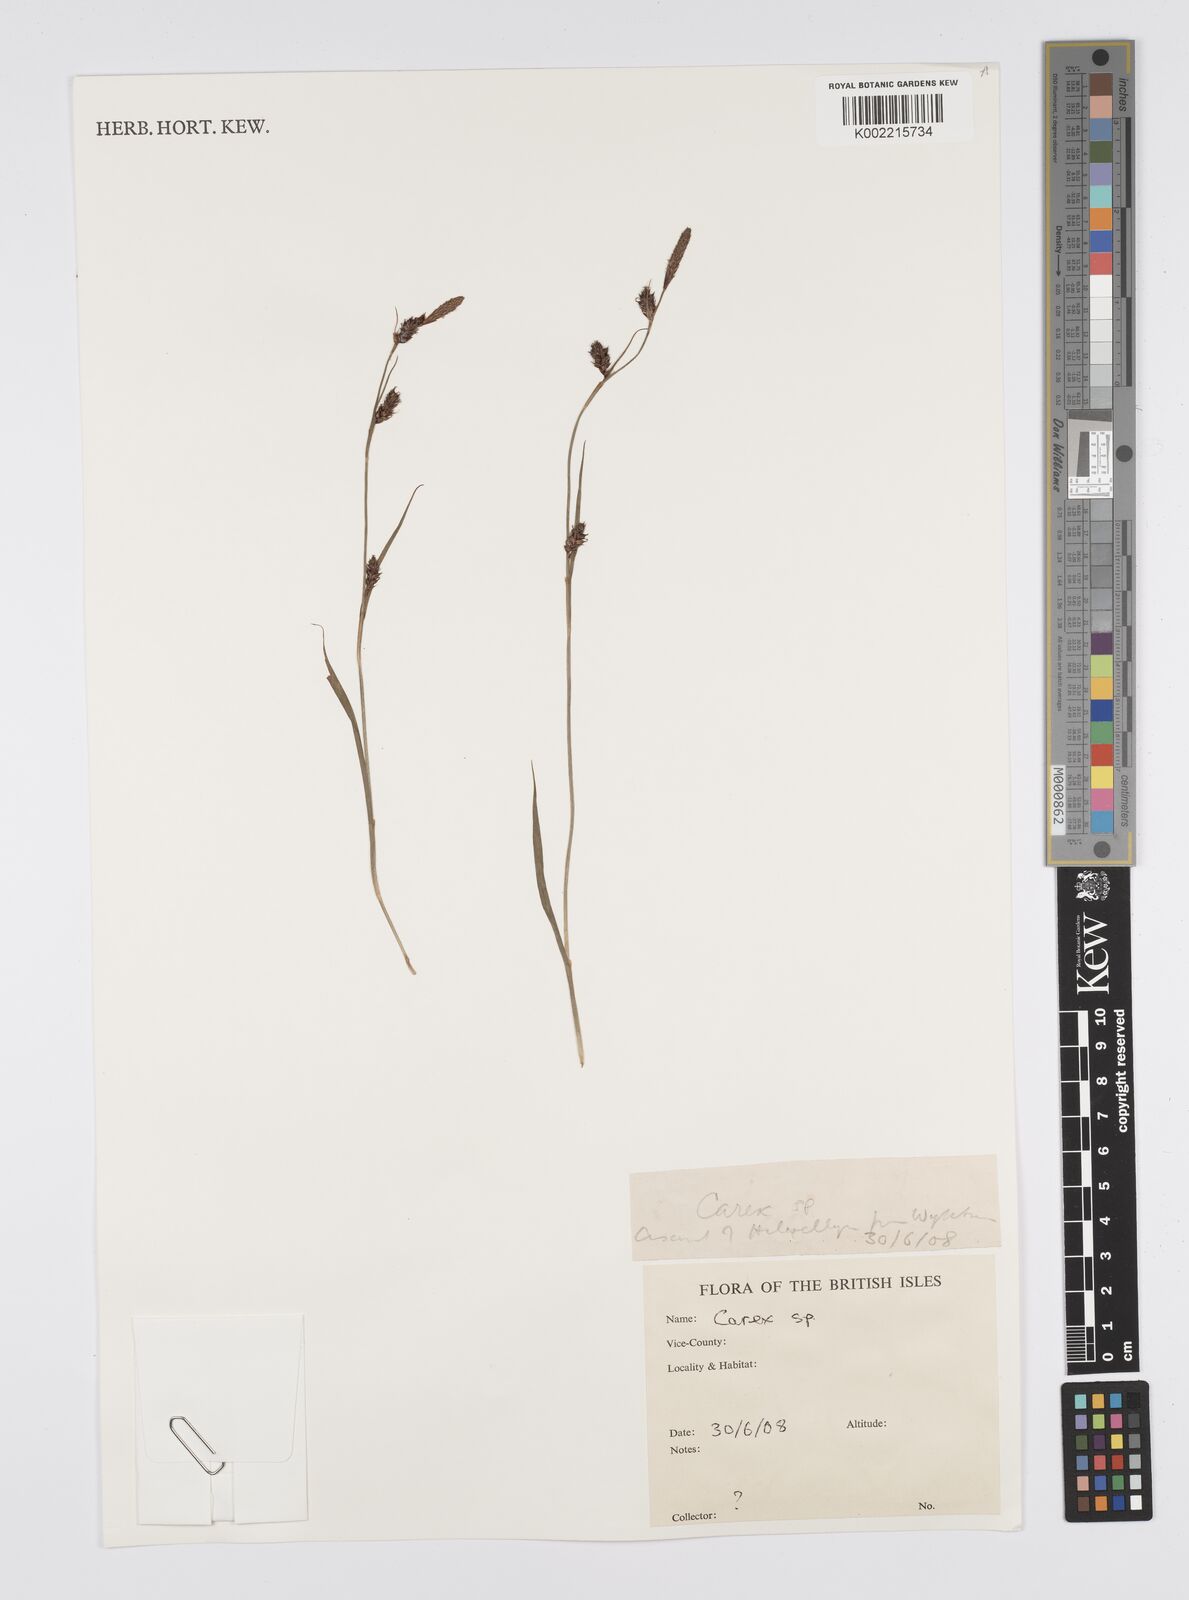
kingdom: Plantae
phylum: Tracheophyta
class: Liliopsida
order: Poales
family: Cyperaceae
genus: Carex
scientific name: Carex
